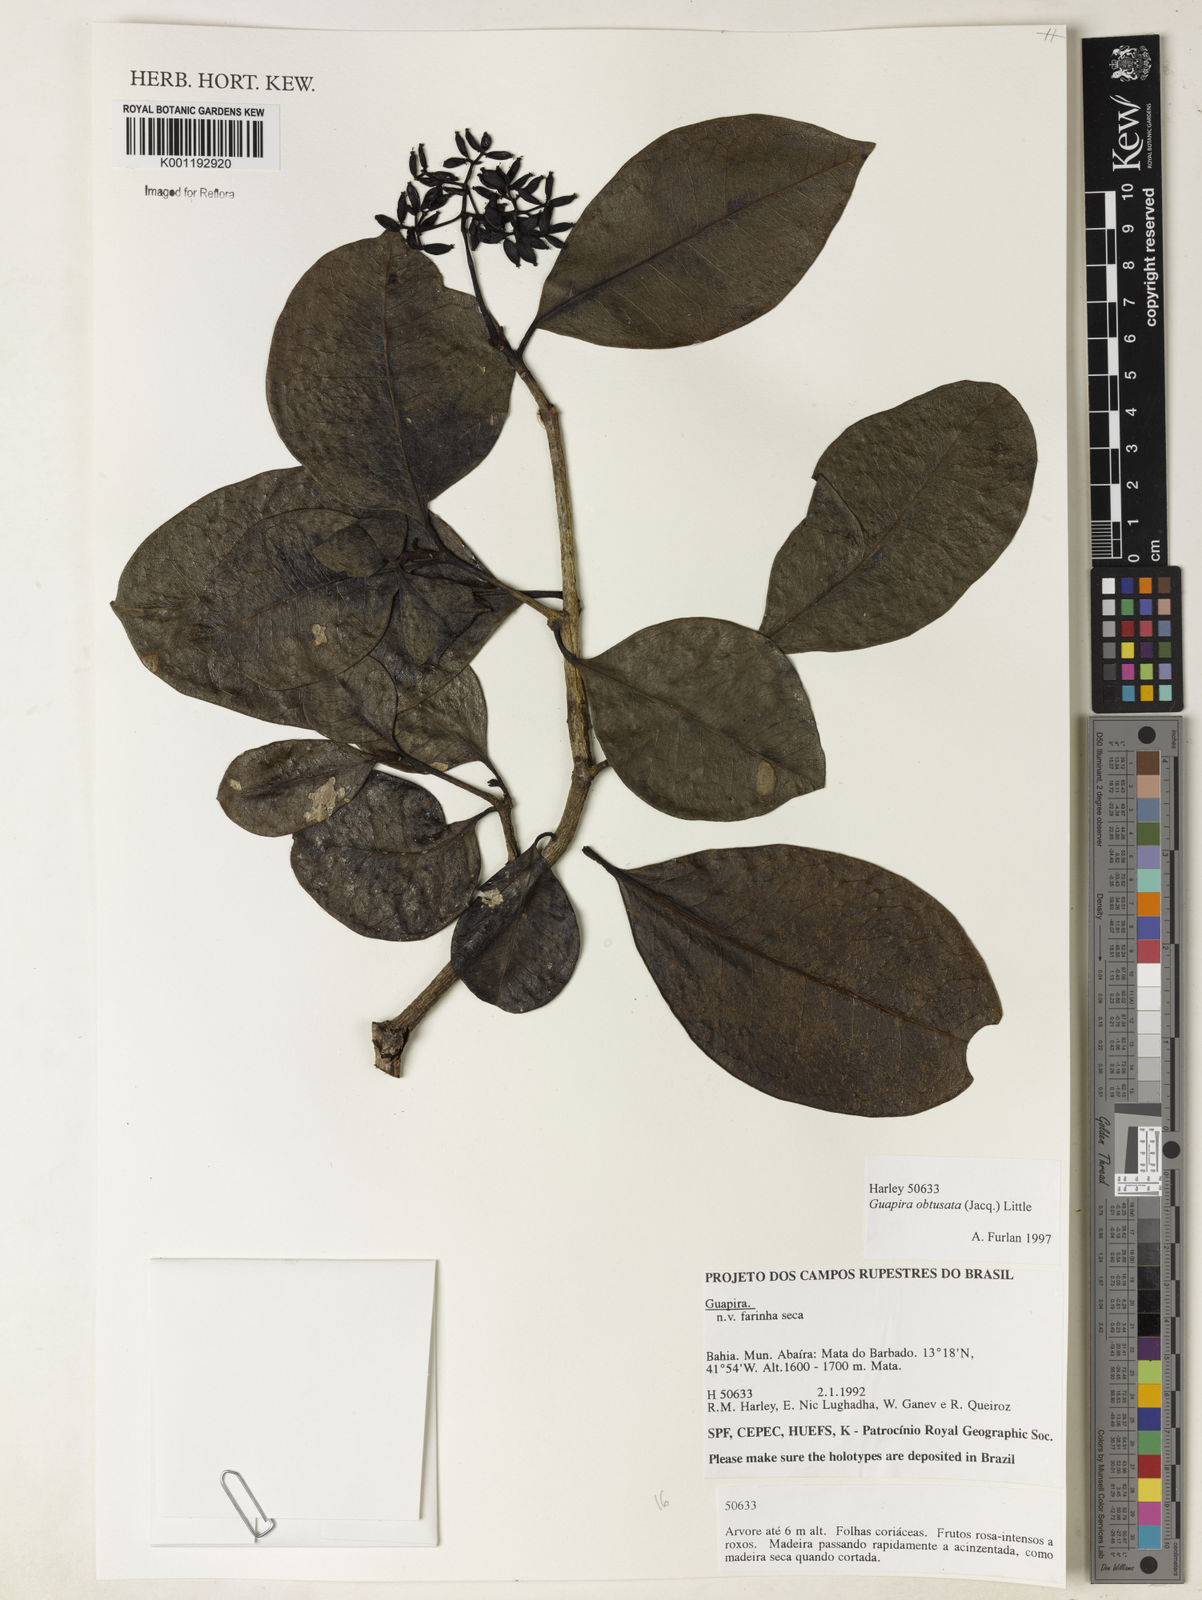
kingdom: Plantae
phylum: Tracheophyta
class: Magnoliopsida
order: Caryophyllales
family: Nyctaginaceae
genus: Guapira
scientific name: Guapira obtusata
